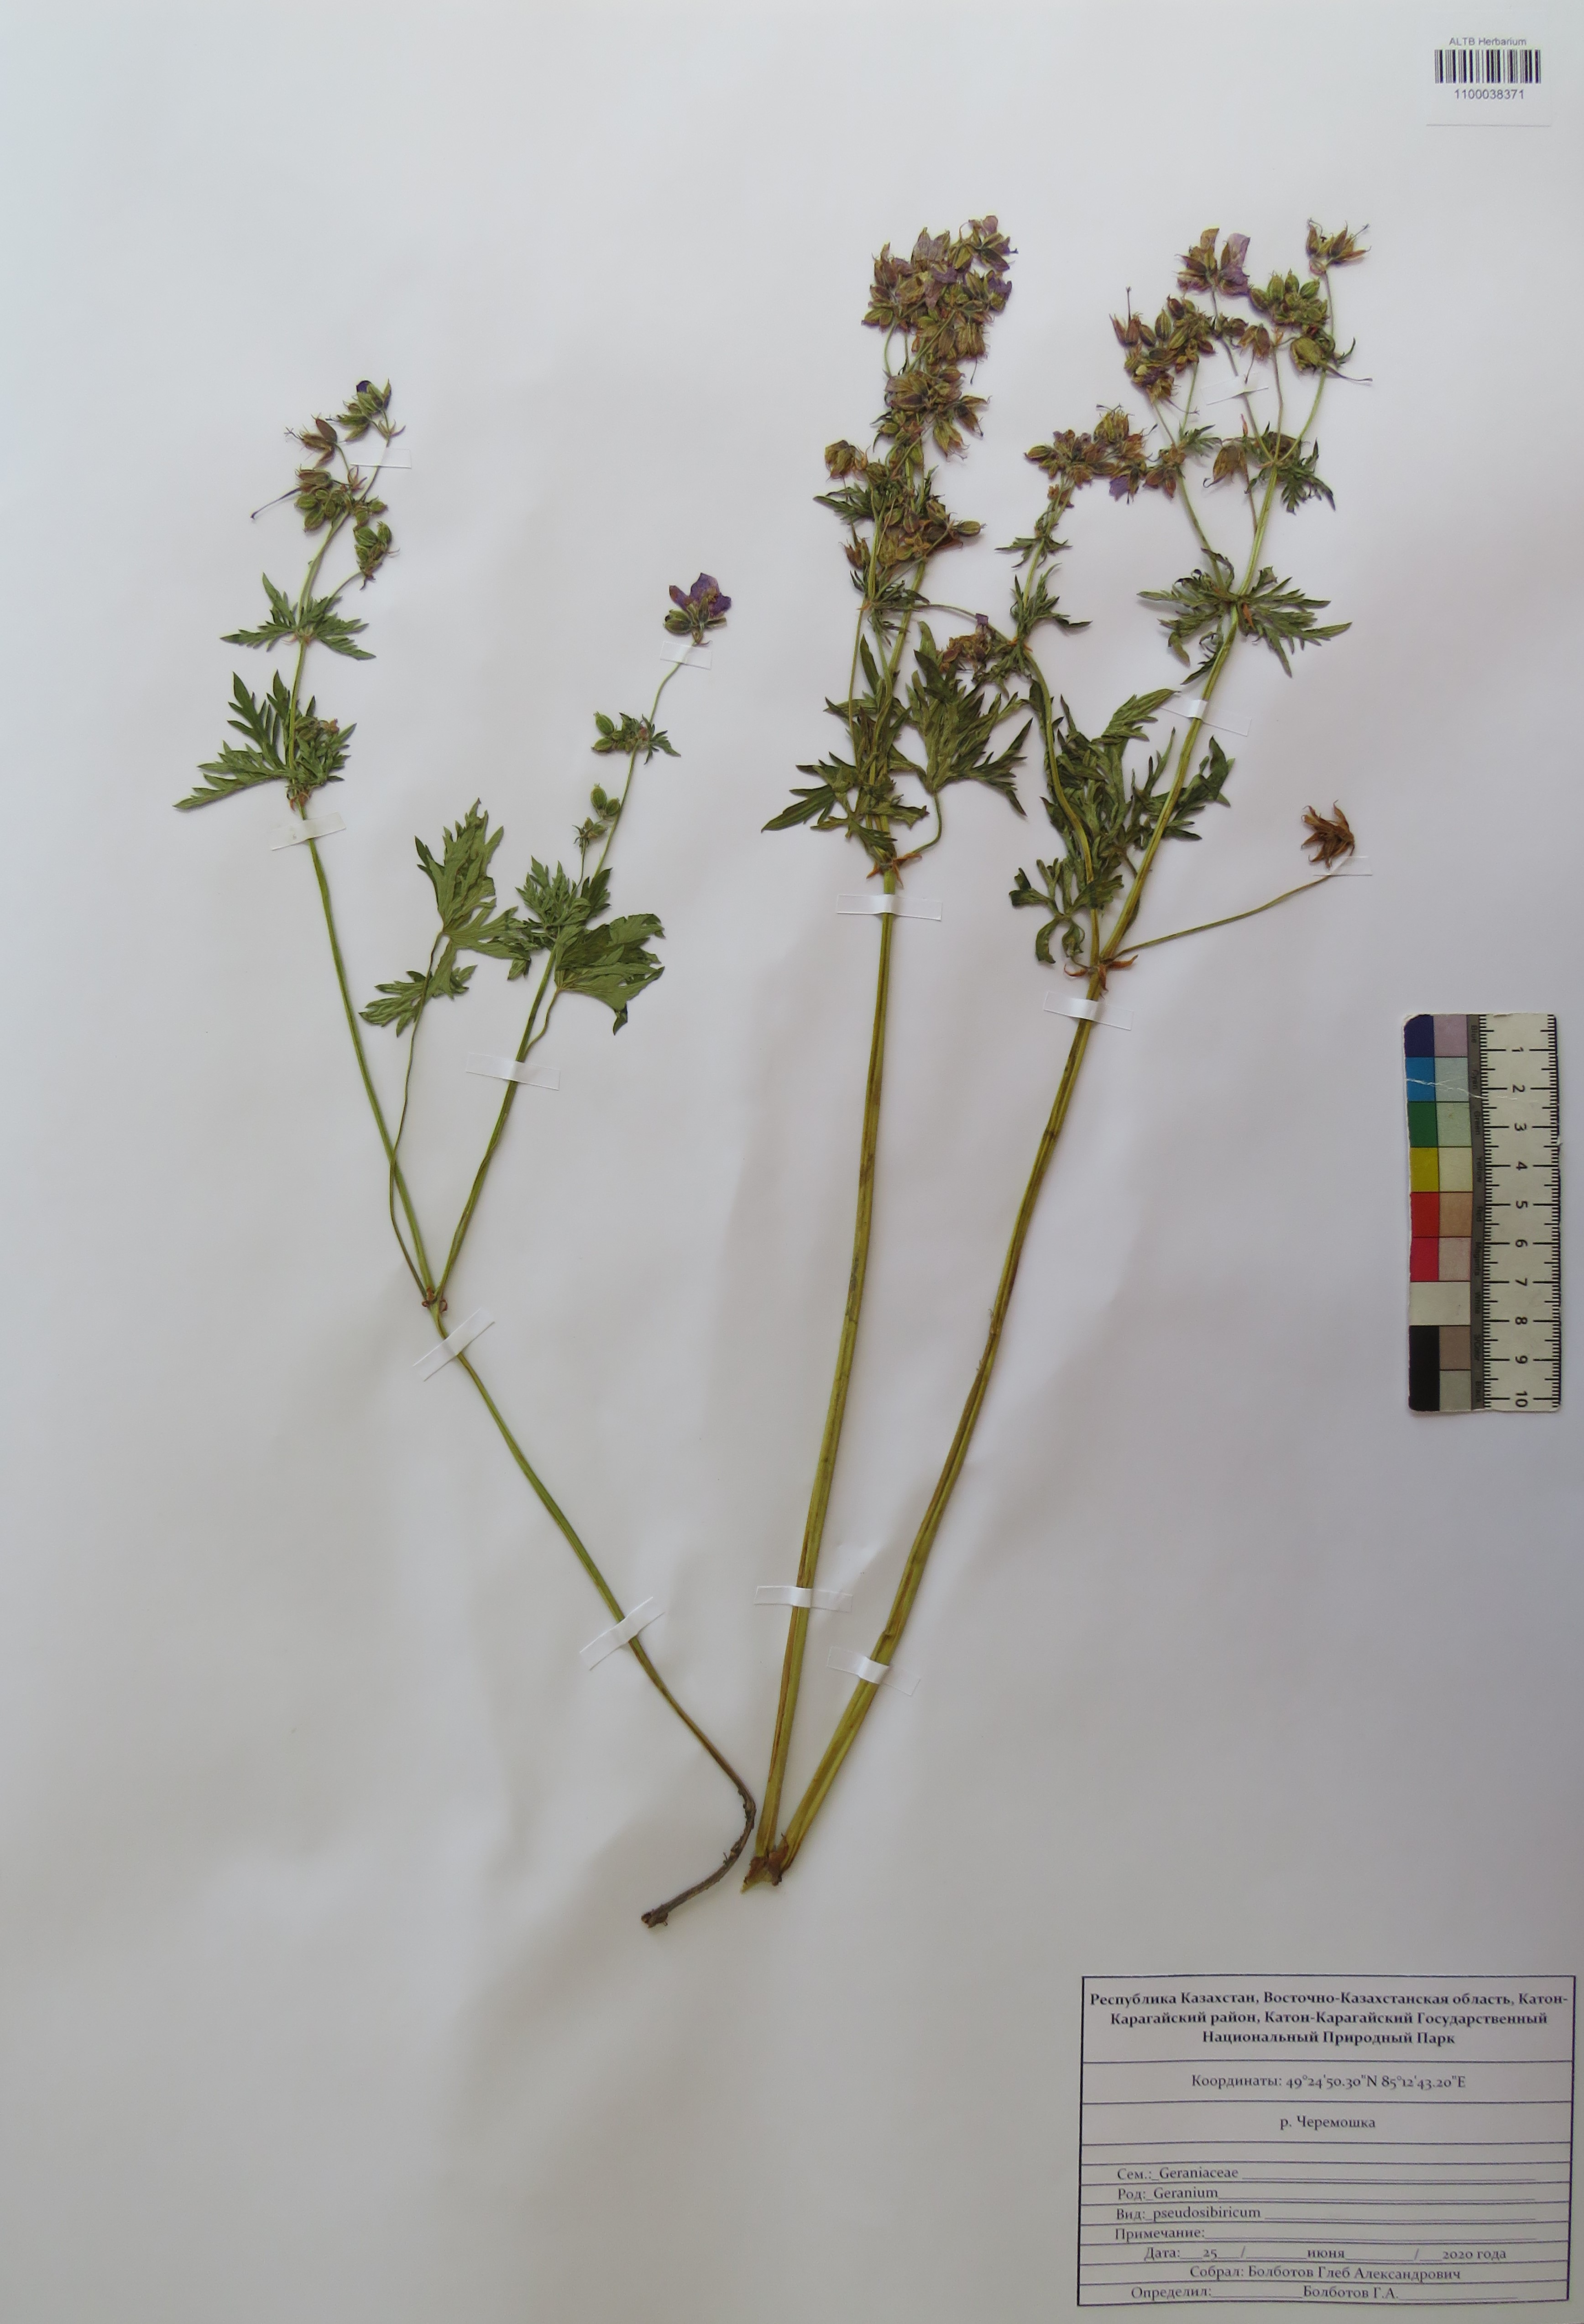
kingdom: Plantae
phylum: Tracheophyta
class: Magnoliopsida
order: Geraniales
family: Geraniaceae
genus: Geranium
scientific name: Geranium pseudosibiricum
